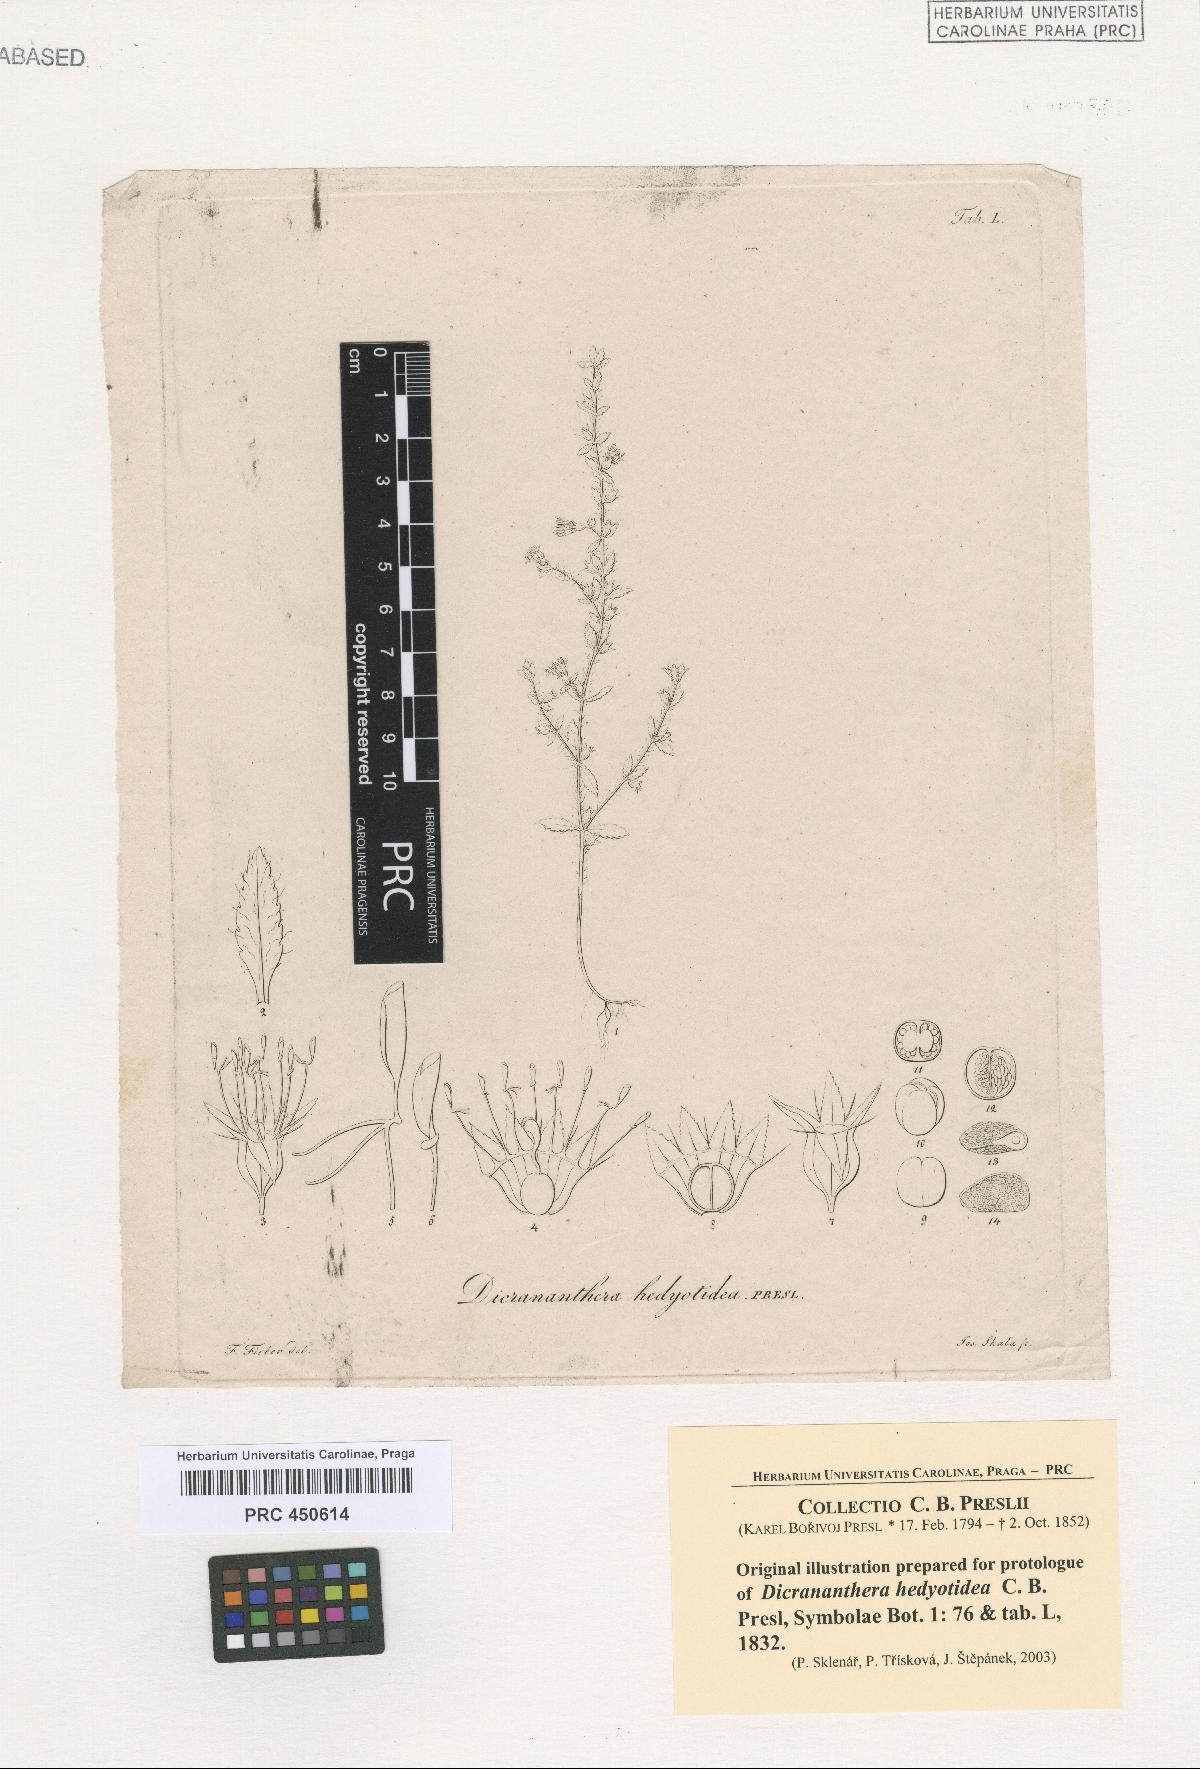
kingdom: Plantae
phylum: Tracheophyta
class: Magnoliopsida
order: Myrtales
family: Melastomataceae
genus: Dicrananthera
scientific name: Dicrananthera hedyotidea
